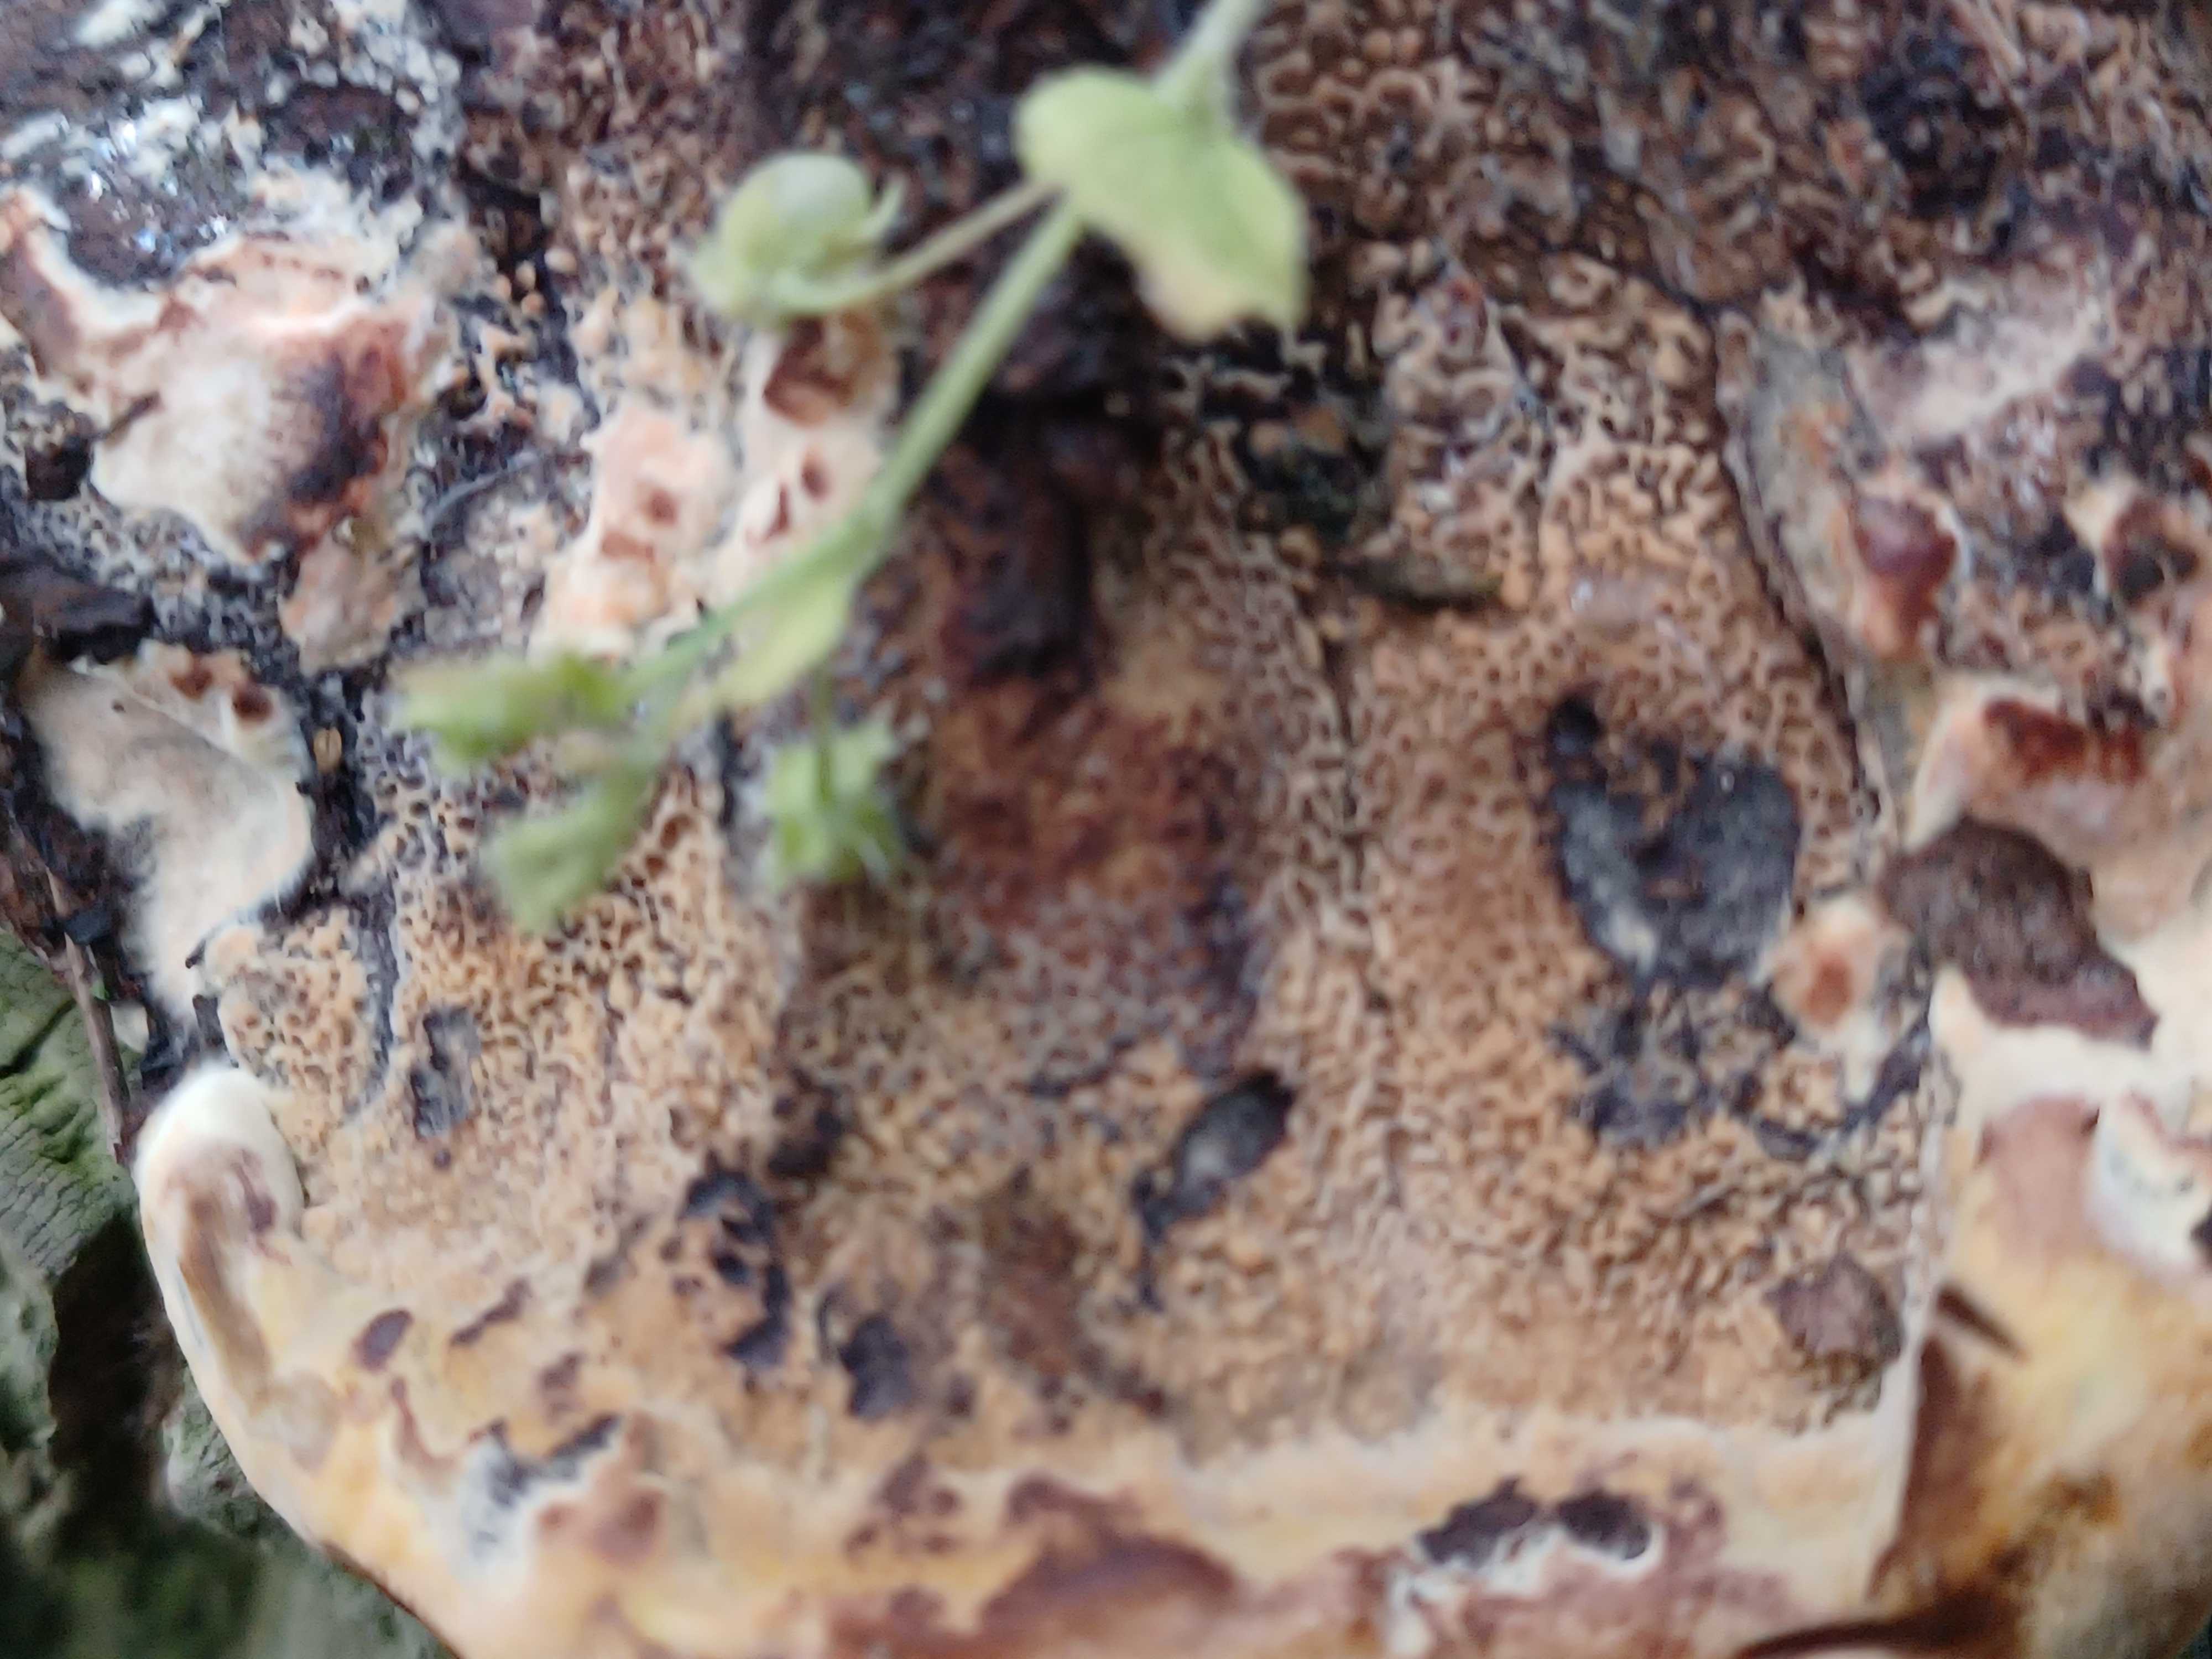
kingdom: Fungi
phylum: Basidiomycota
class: Agaricomycetes
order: Polyporales
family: Laetiporaceae
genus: Phaeolus
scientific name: Phaeolus schweinitzii
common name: brunporesvamp
